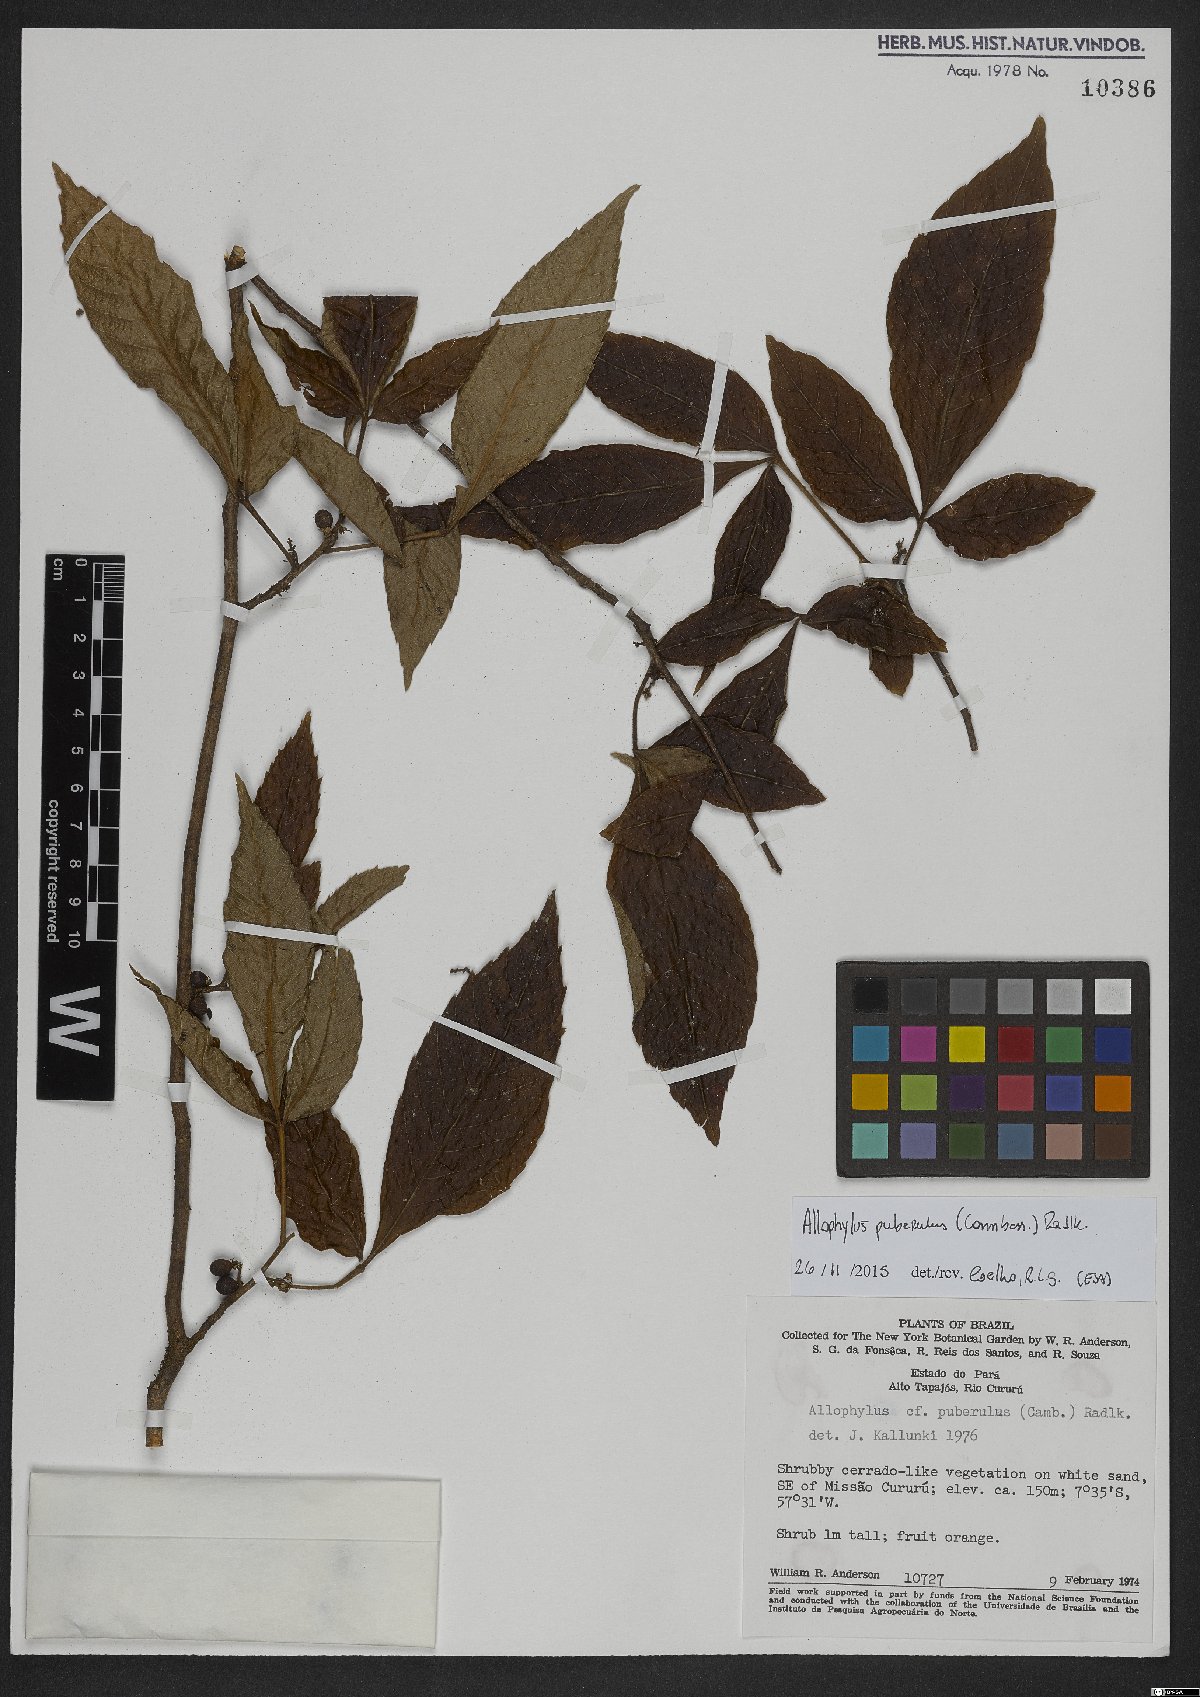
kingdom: Plantae
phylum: Tracheophyta
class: Magnoliopsida
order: Sapindales
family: Sapindaceae
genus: Allophylus
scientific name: Allophylus puberulus
